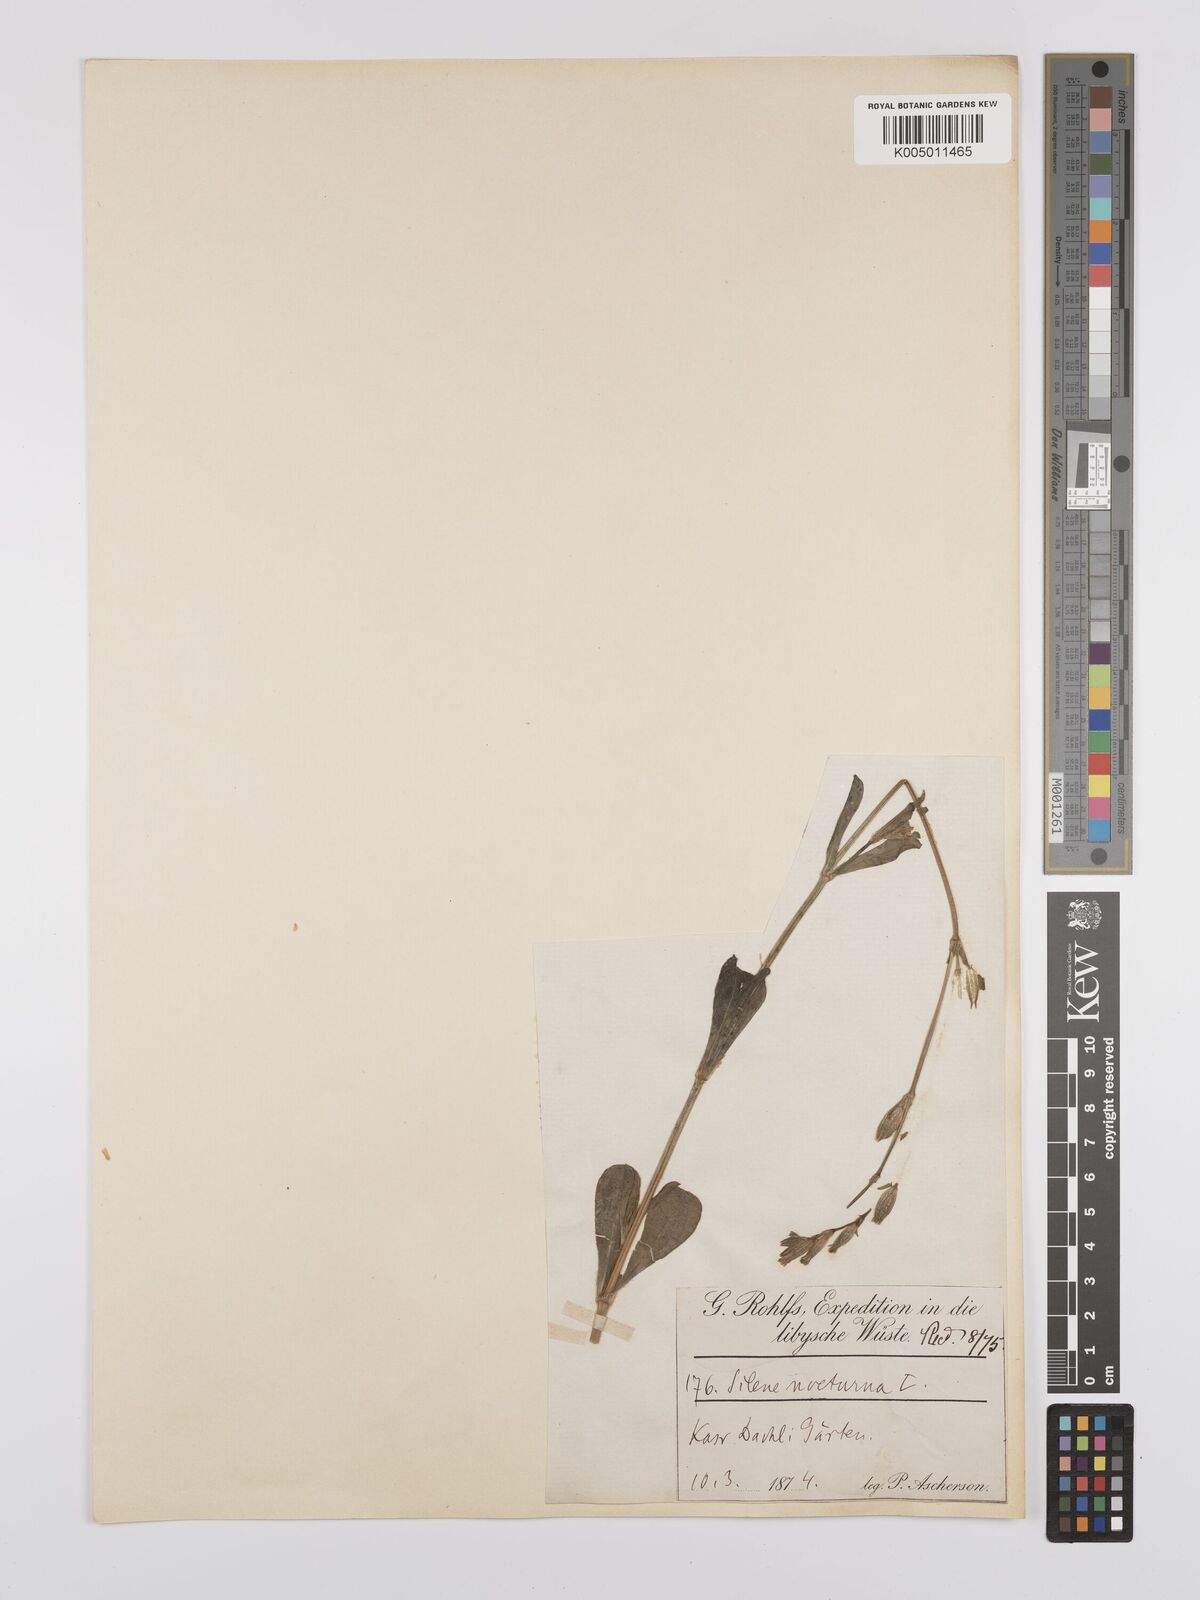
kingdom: Plantae
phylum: Tracheophyta
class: Magnoliopsida
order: Caryophyllales
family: Caryophyllaceae
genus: Silene
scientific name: Silene nocturna
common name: Mediterranean catchfly
